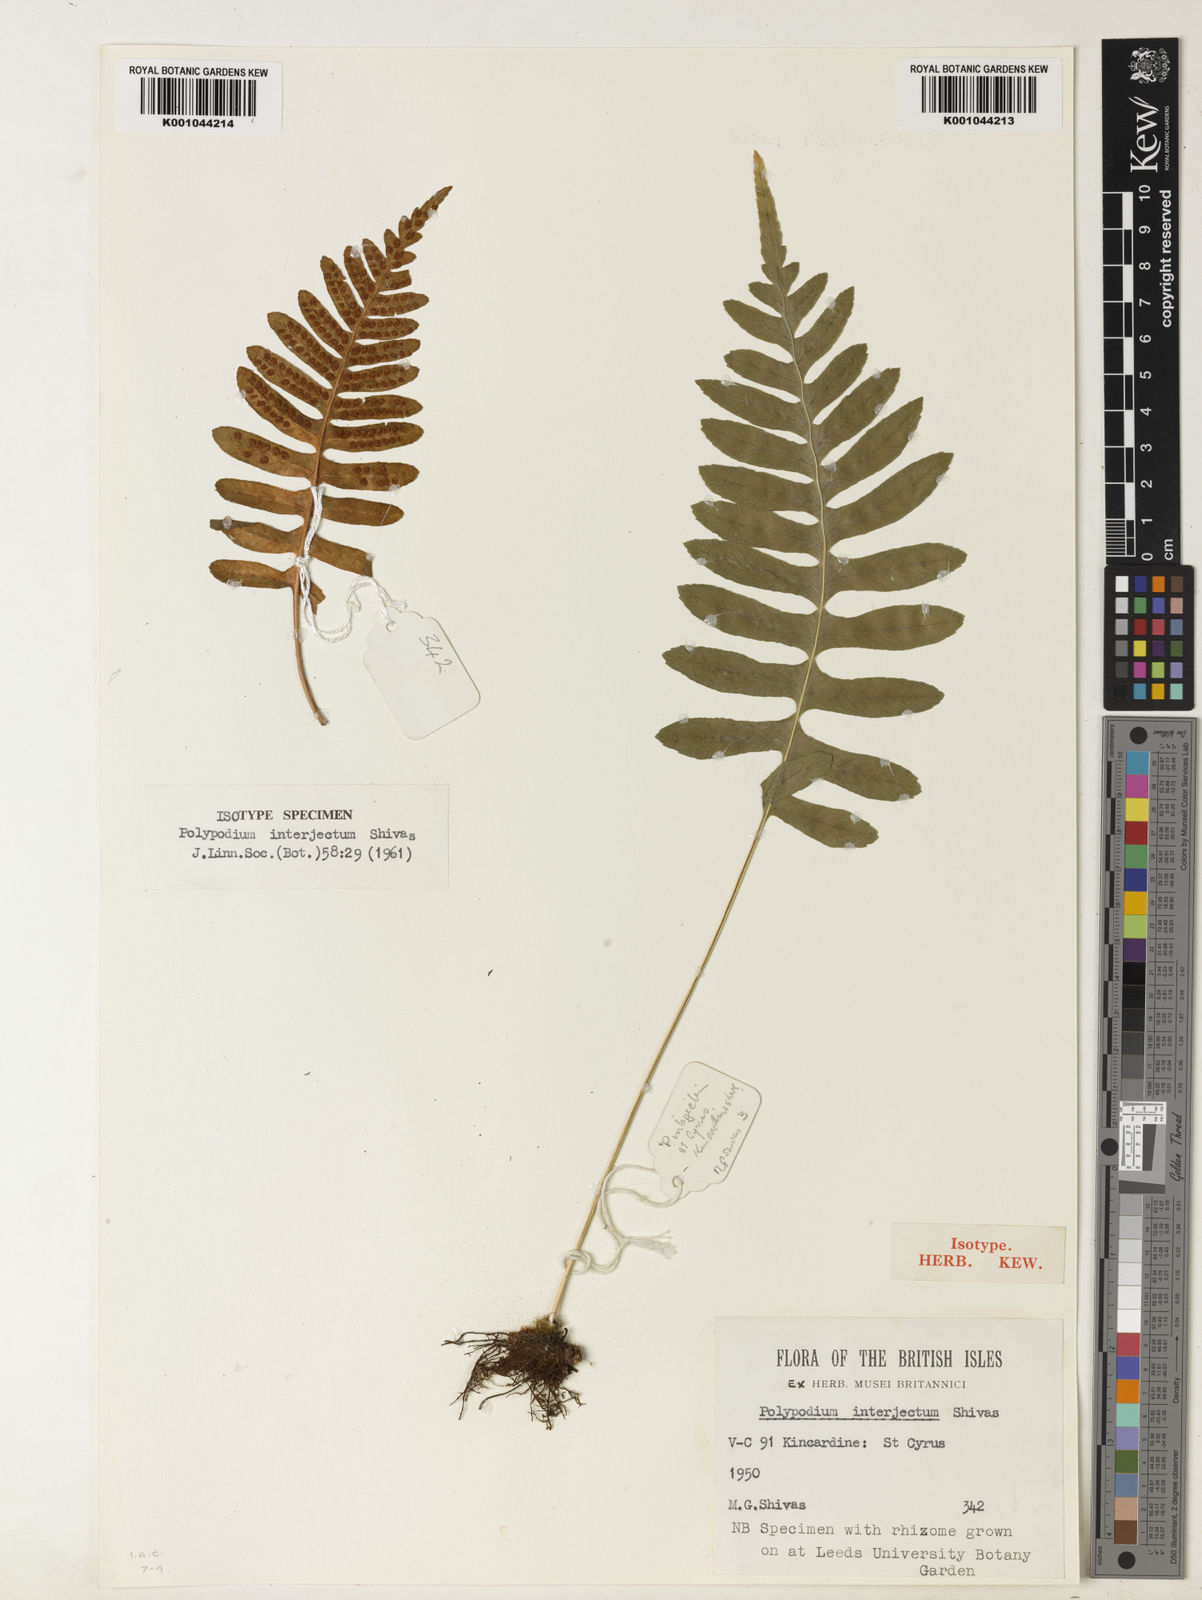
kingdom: Plantae
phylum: Tracheophyta
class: Polypodiopsida
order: Polypodiales
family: Polypodiaceae
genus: Polypodium
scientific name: Polypodium interjectum
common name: Intermediate polypody
